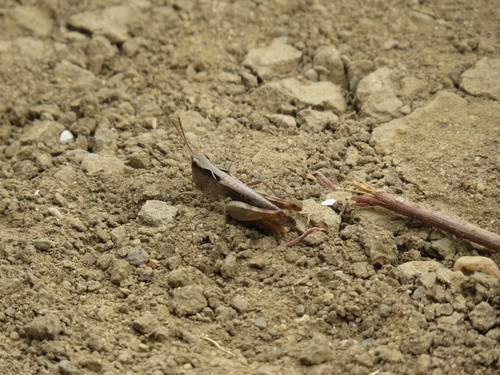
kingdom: Animalia
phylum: Arthropoda
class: Insecta
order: Orthoptera
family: Acrididae
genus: Chorthippus
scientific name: Chorthippus vagans
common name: Heath grasshopper
